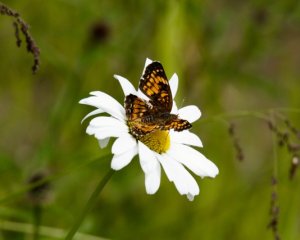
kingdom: Animalia
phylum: Arthropoda
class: Insecta
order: Lepidoptera
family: Nymphalidae
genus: Chlosyne
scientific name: Chlosyne harrisii
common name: Harris's Checkerspot
